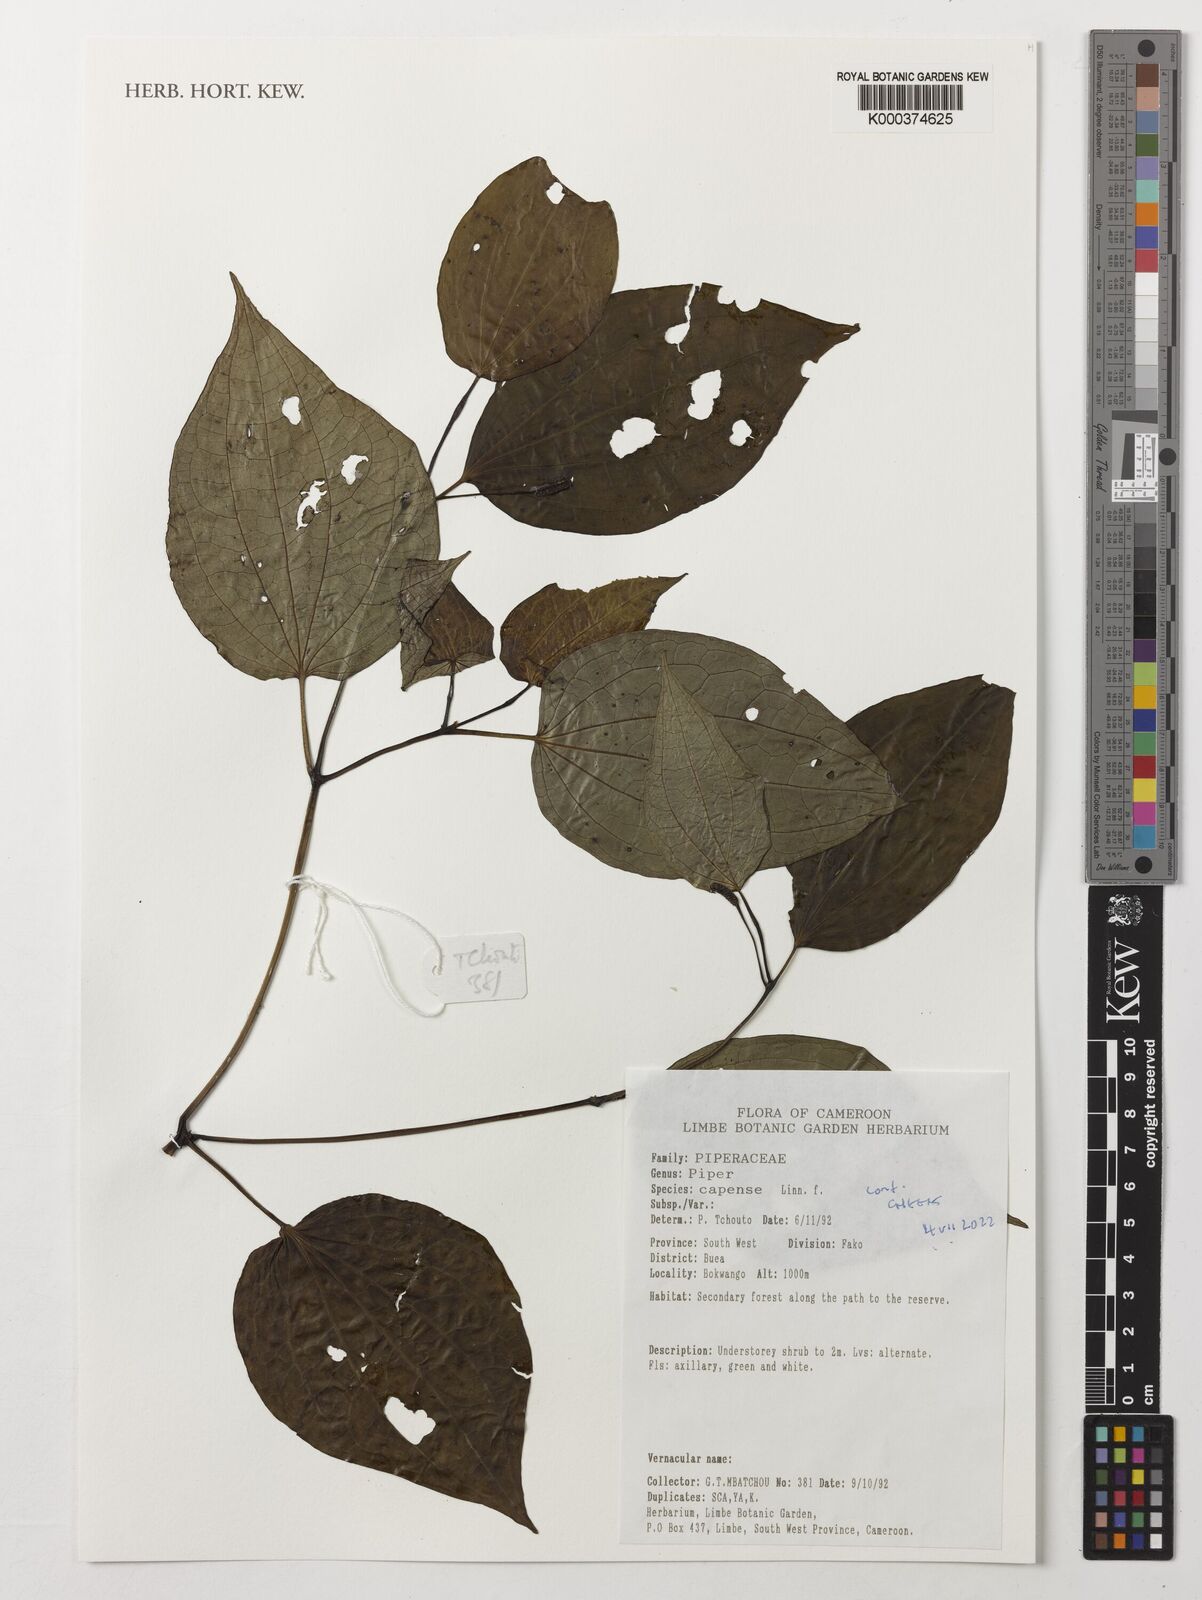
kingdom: Plantae
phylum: Tracheophyta
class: Magnoliopsida
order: Piperales
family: Piperaceae
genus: Piper
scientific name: Piper capense
